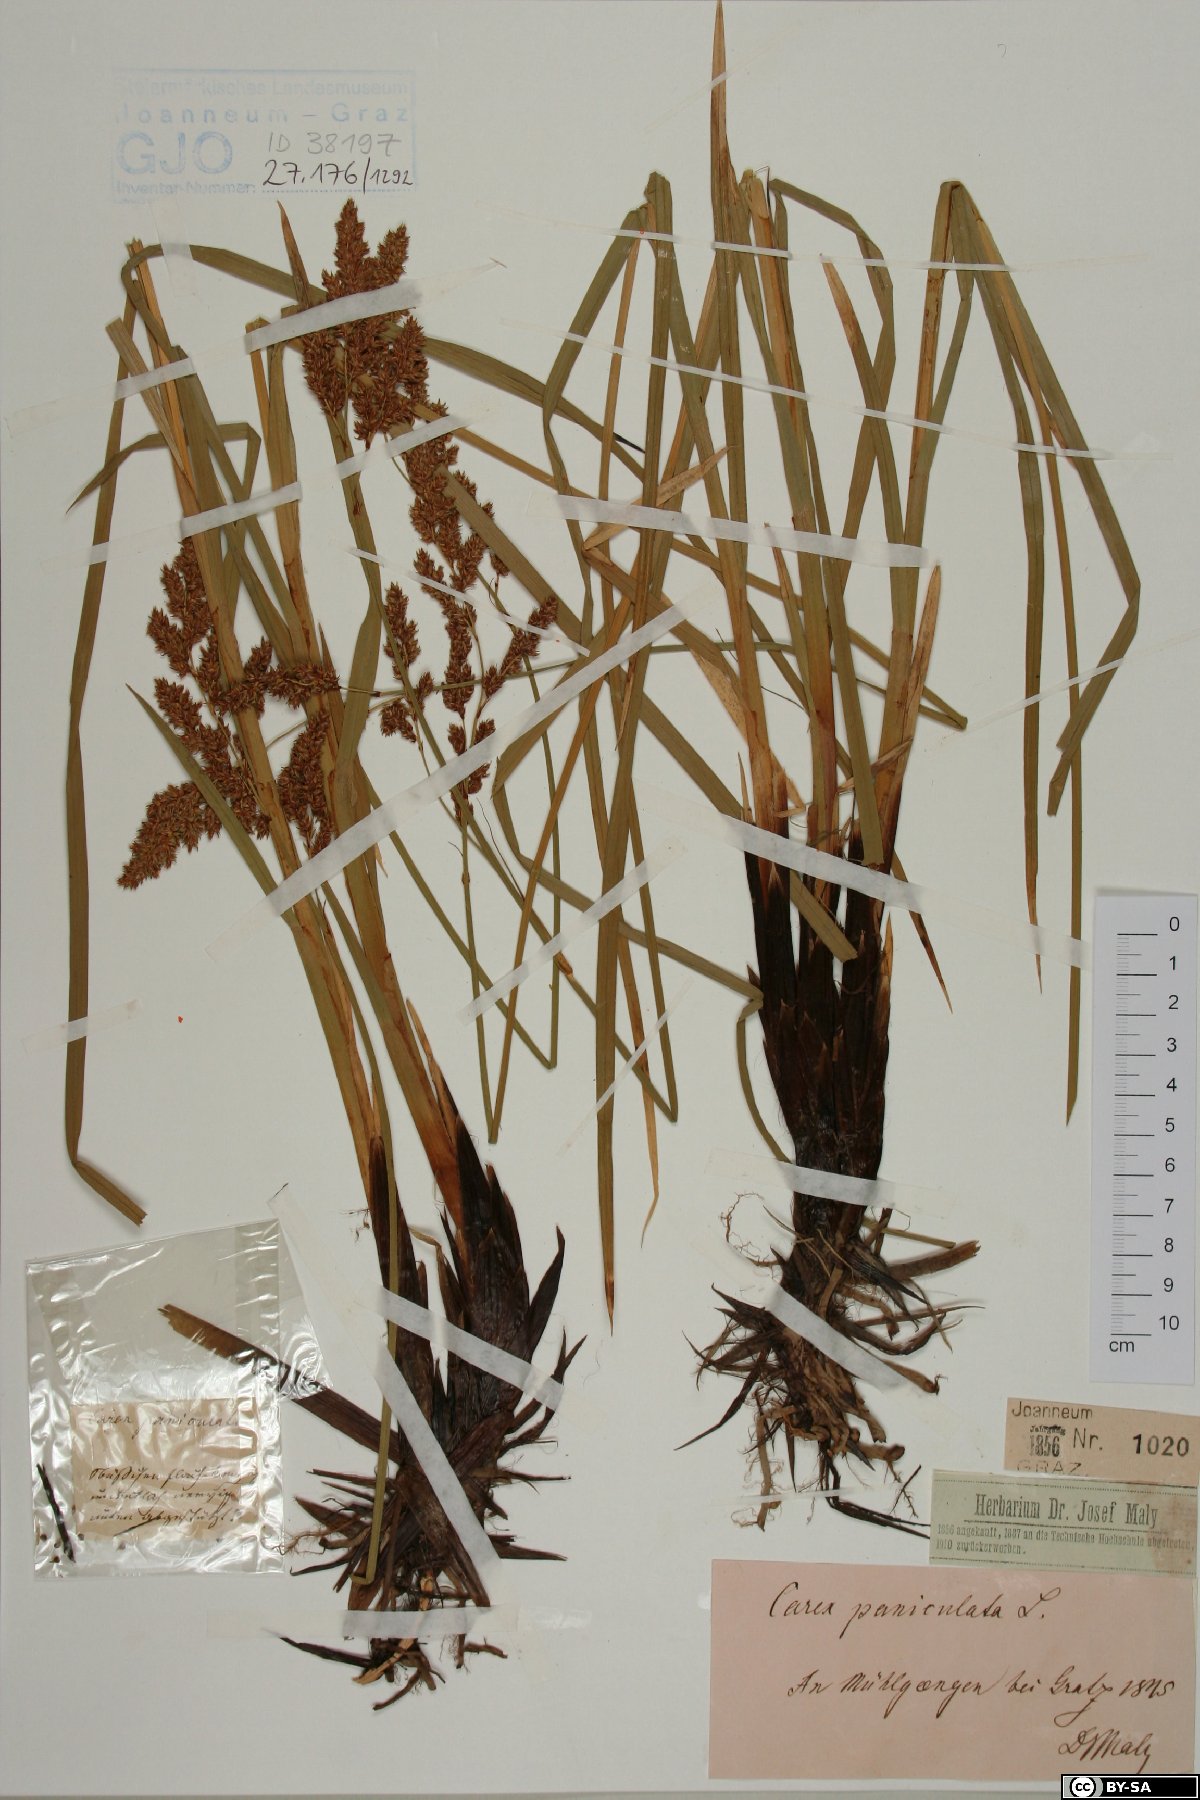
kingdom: Plantae
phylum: Tracheophyta
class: Liliopsida
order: Poales
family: Cyperaceae
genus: Carex
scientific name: Carex paniculata
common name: Greater tussock-sedge
